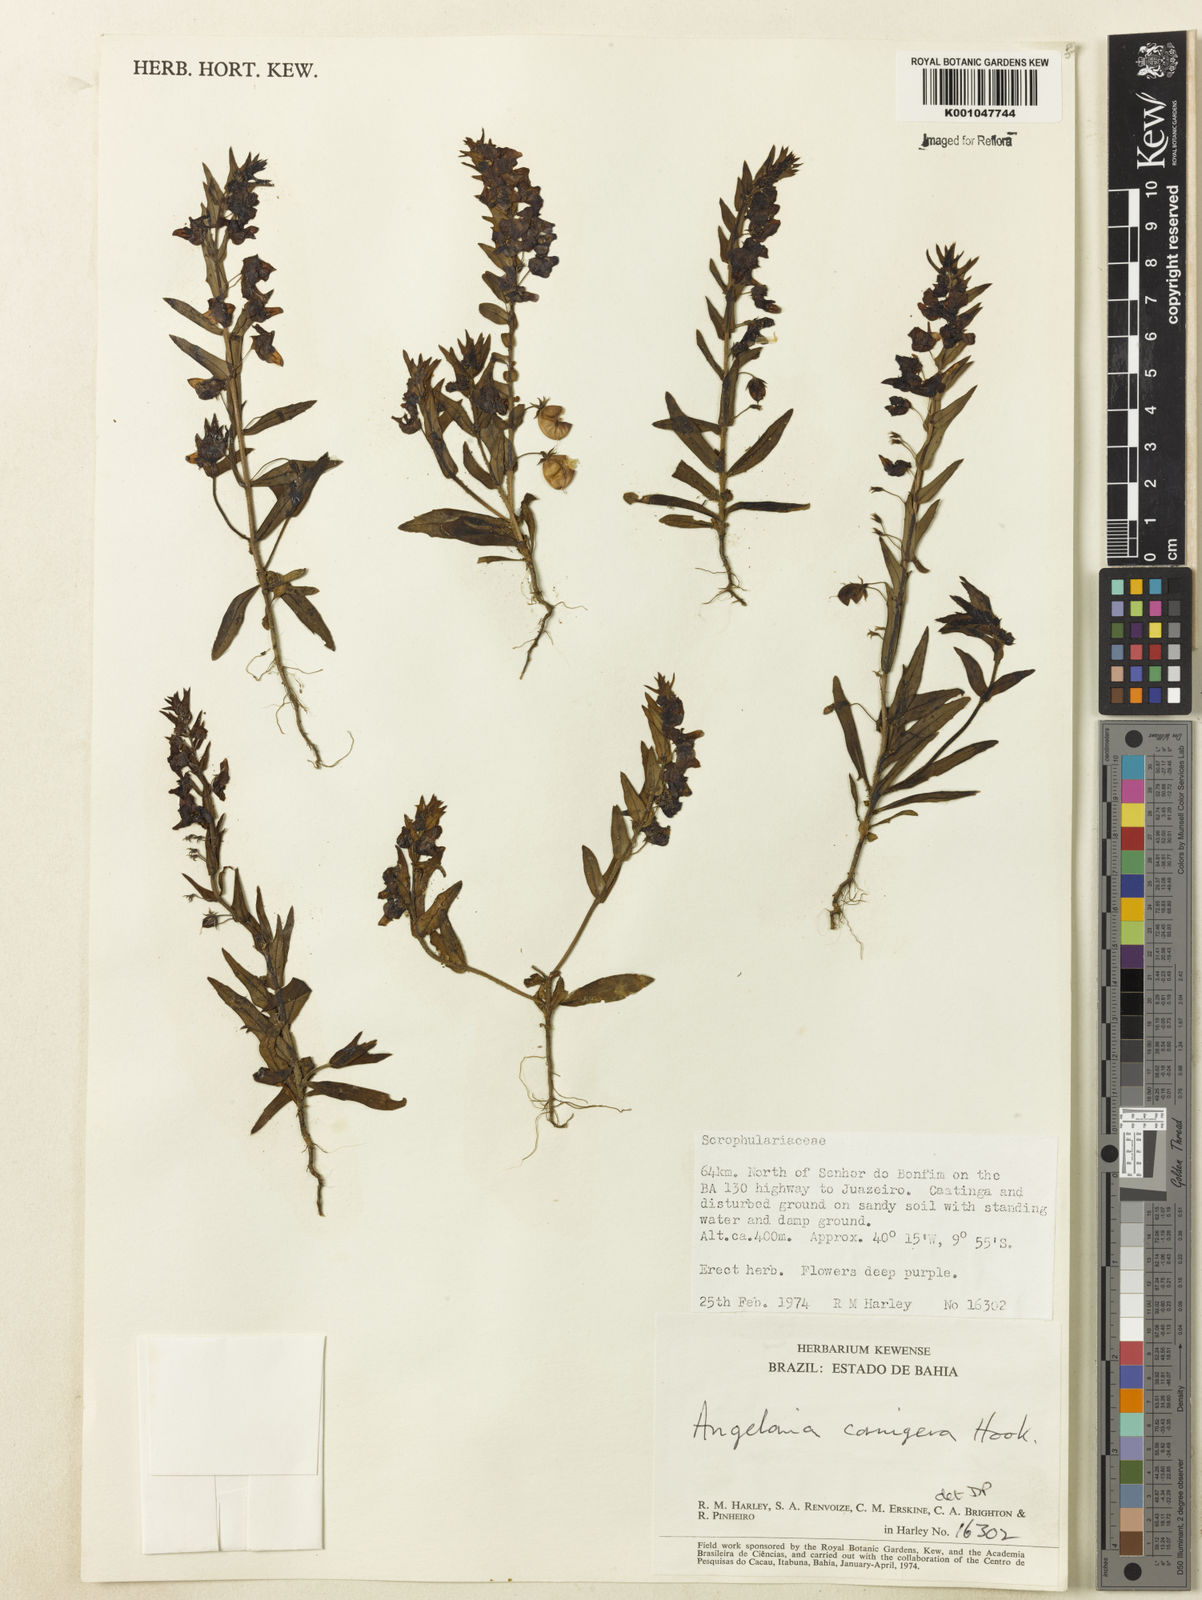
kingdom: Plantae
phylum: Tracheophyta
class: Magnoliopsida
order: Lamiales
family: Plantaginaceae
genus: Angelonia
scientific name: Angelonia cornigera
